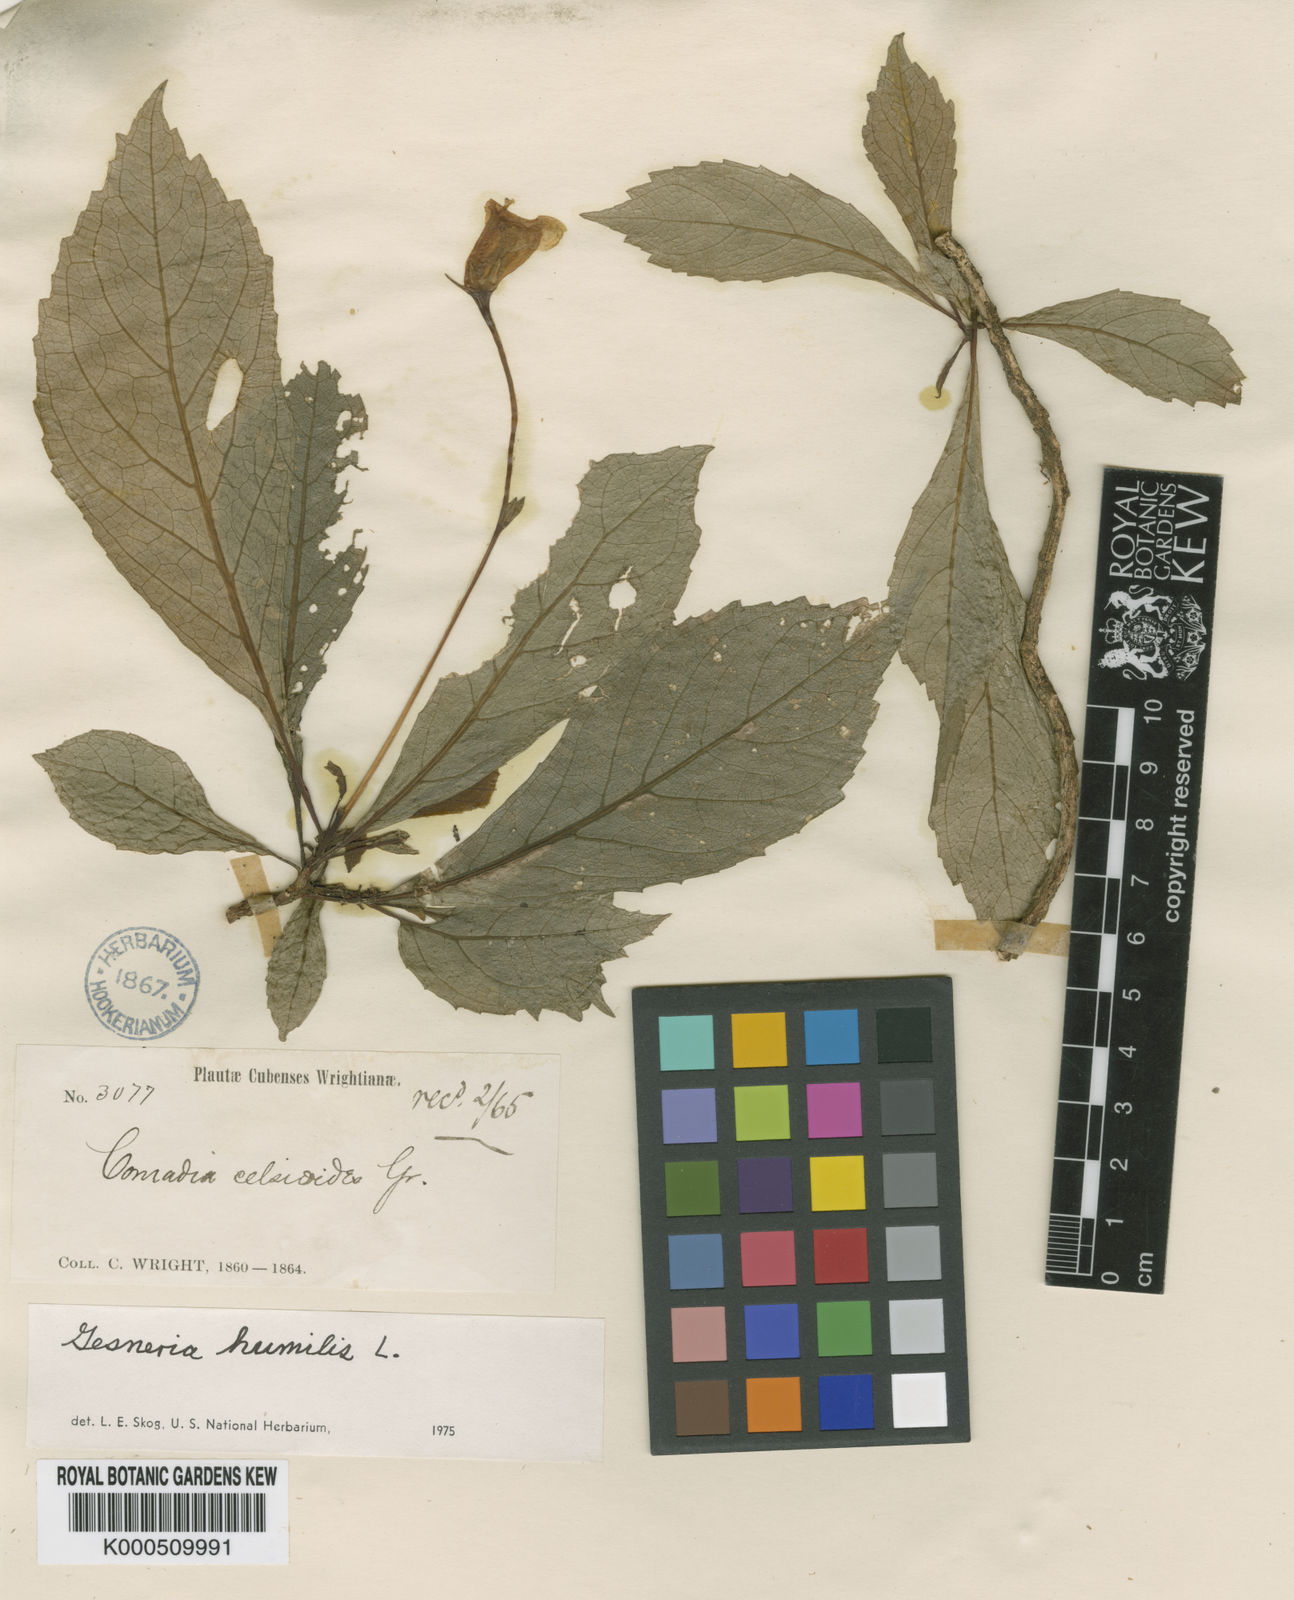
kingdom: Plantae
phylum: Tracheophyta
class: Magnoliopsida
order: Lamiales
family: Gesneriaceae
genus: Gesneria
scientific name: Gesneria humilis
